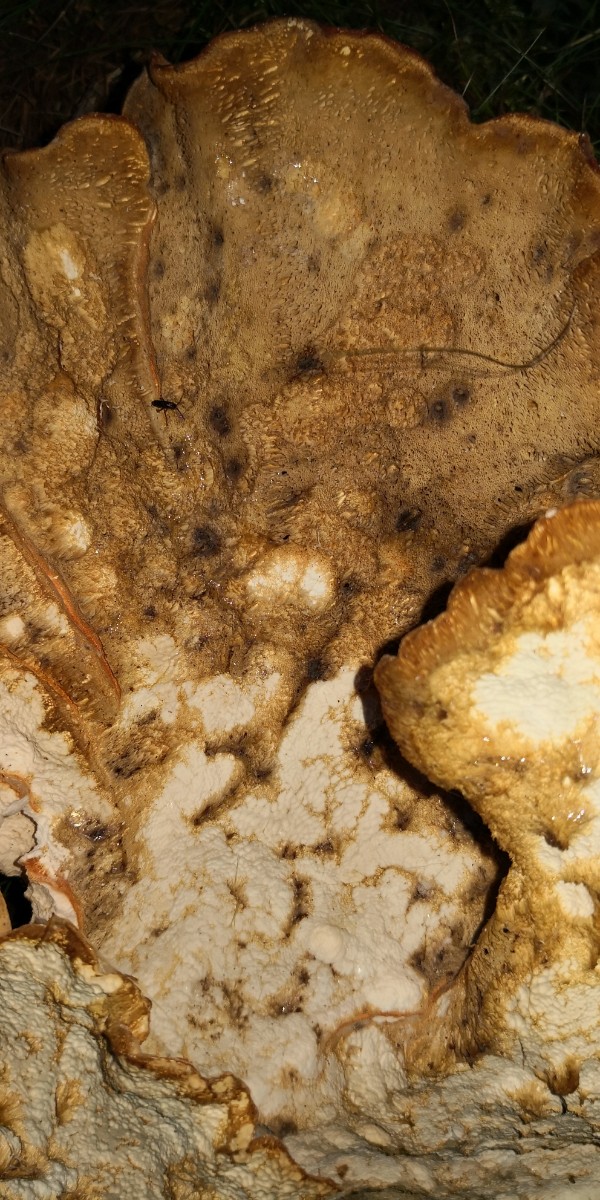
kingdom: Fungi
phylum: Basidiomycota
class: Agaricomycetes
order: Polyporales
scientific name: Polyporales
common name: poresvampordenen
